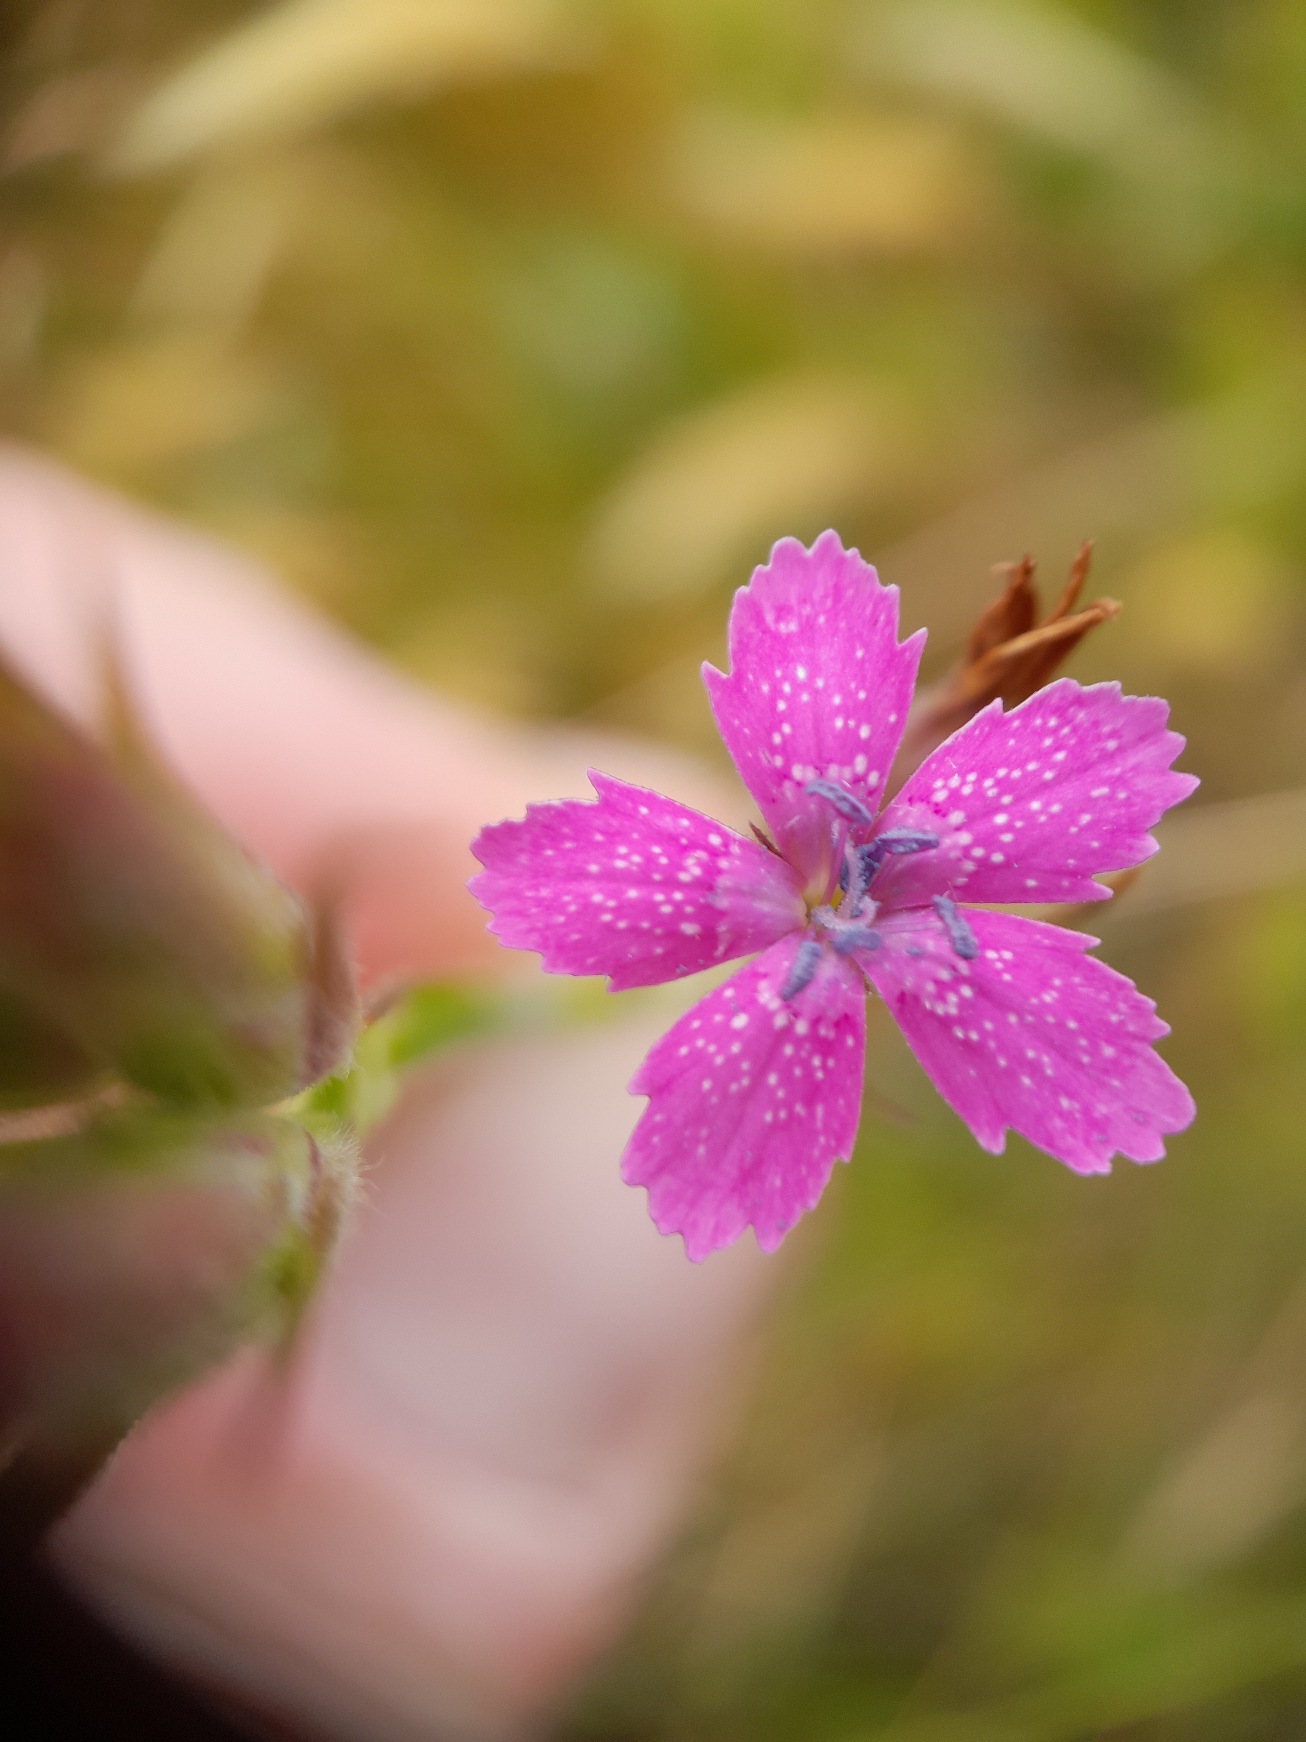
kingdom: Plantae
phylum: Tracheophyta
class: Magnoliopsida
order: Caryophyllales
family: Caryophyllaceae
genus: Dianthus
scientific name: Dianthus armeria
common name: Kost-nellike
